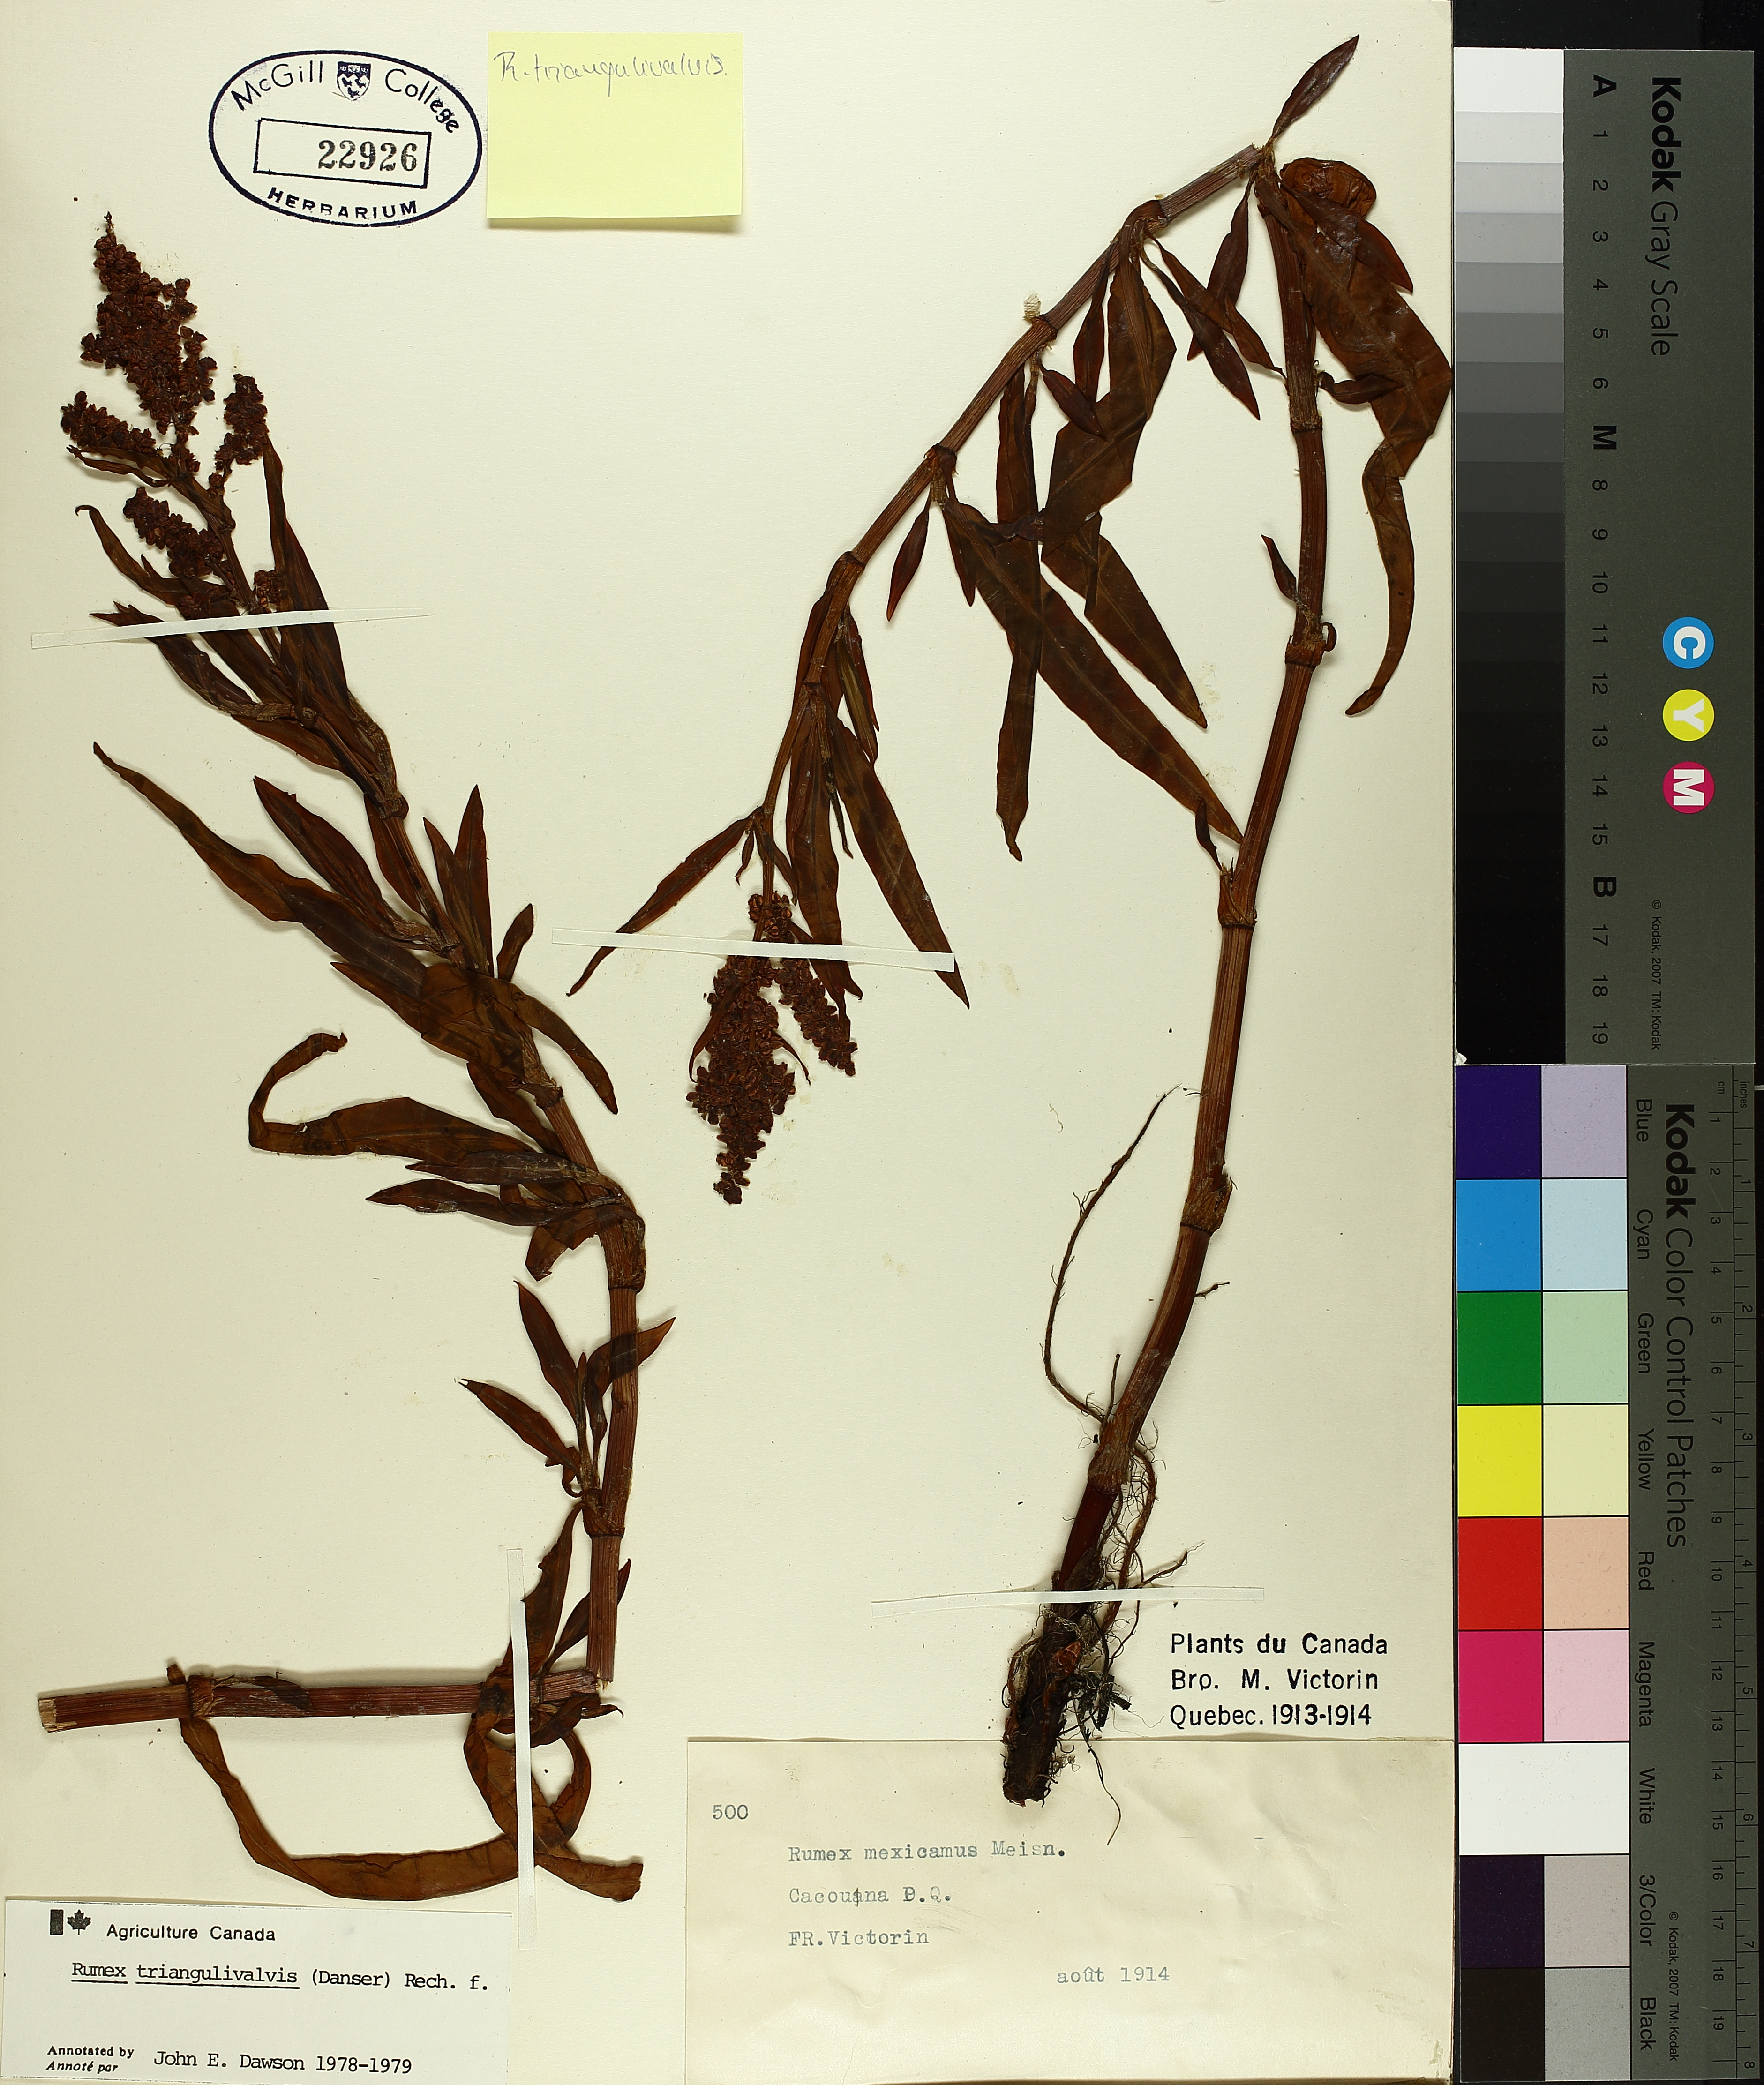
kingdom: Plantae
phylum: Tracheophyta
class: Magnoliopsida
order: Caryophyllales
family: Polygonaceae
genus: Rumex
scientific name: Rumex triangulivalvis
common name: Triangular-valve dock
